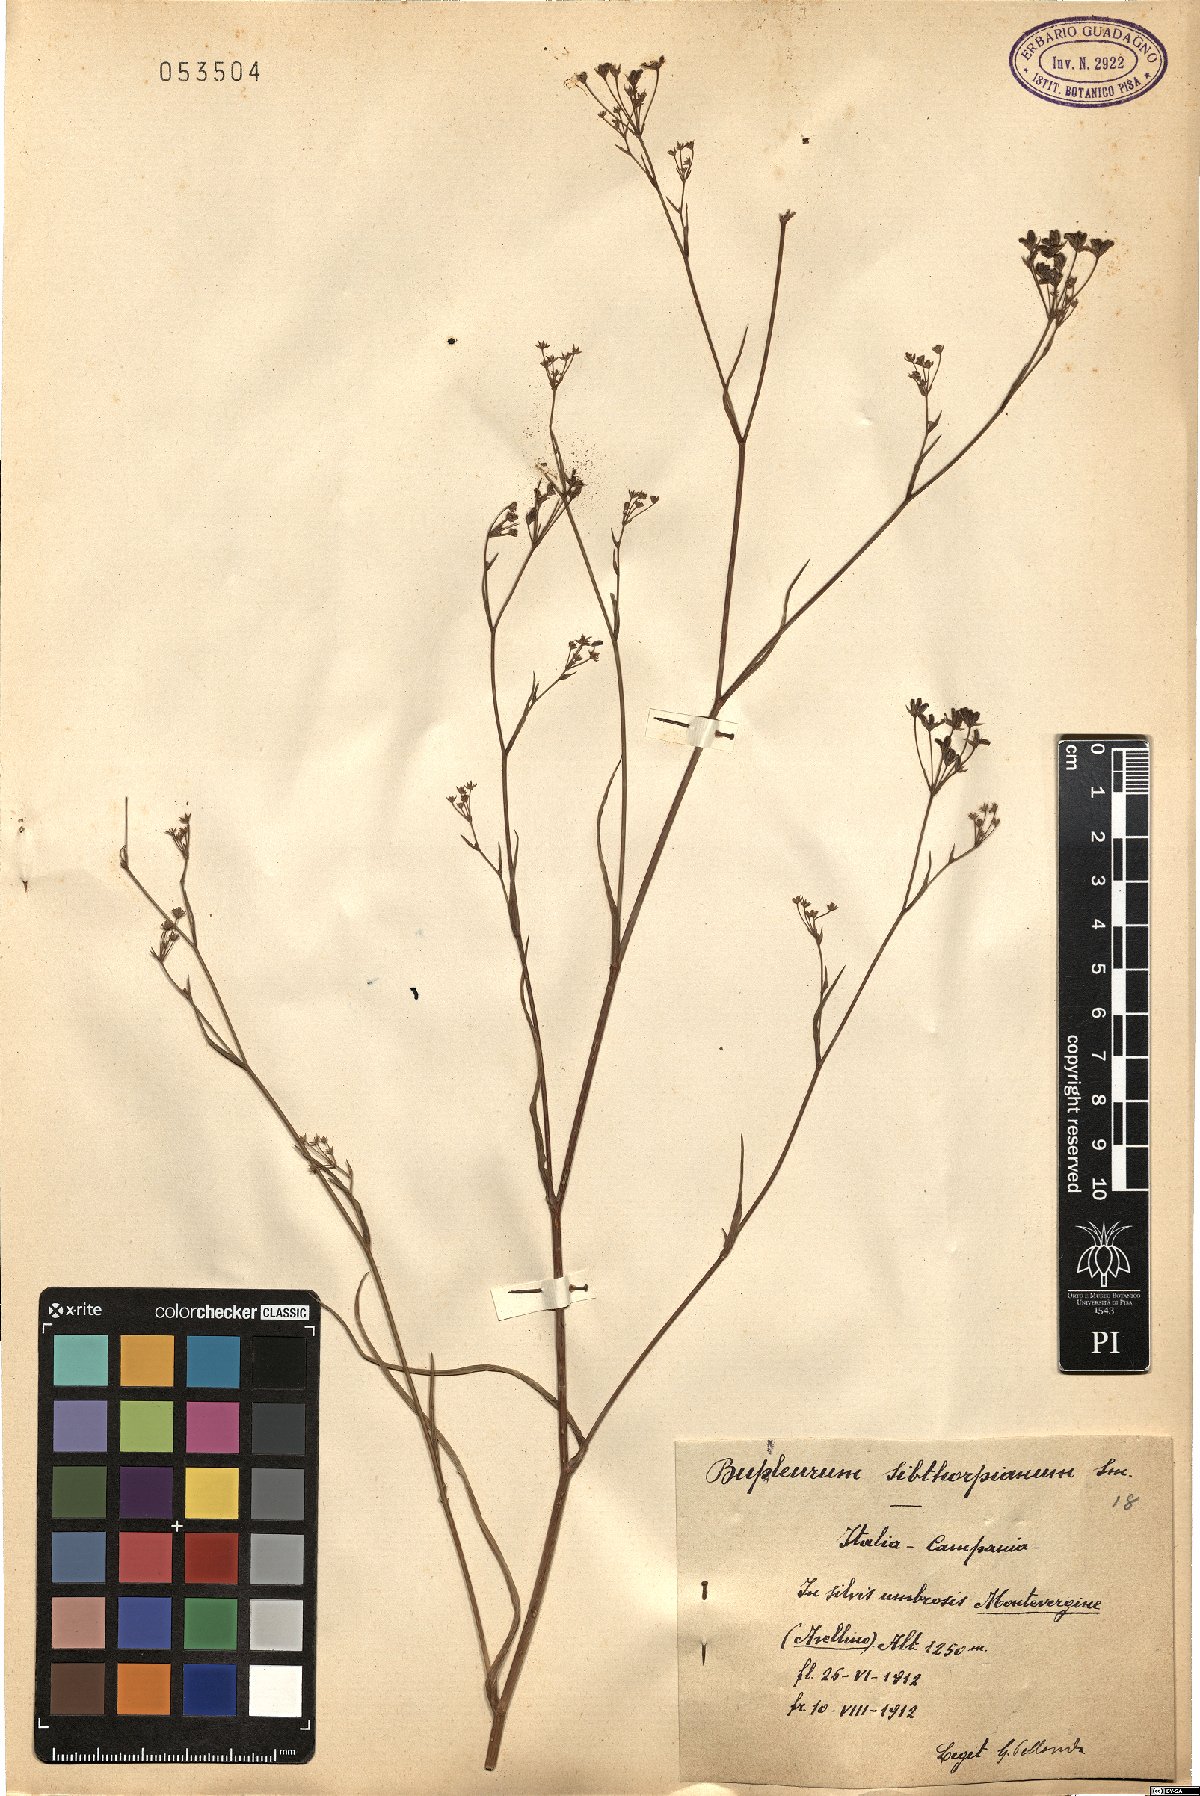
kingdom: Plantae
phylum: Tracheophyta
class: Magnoliopsida
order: Apiales
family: Apiaceae
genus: Bupleurum
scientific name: Bupleurum falcatum
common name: Sickle-leaved hare's-ear
